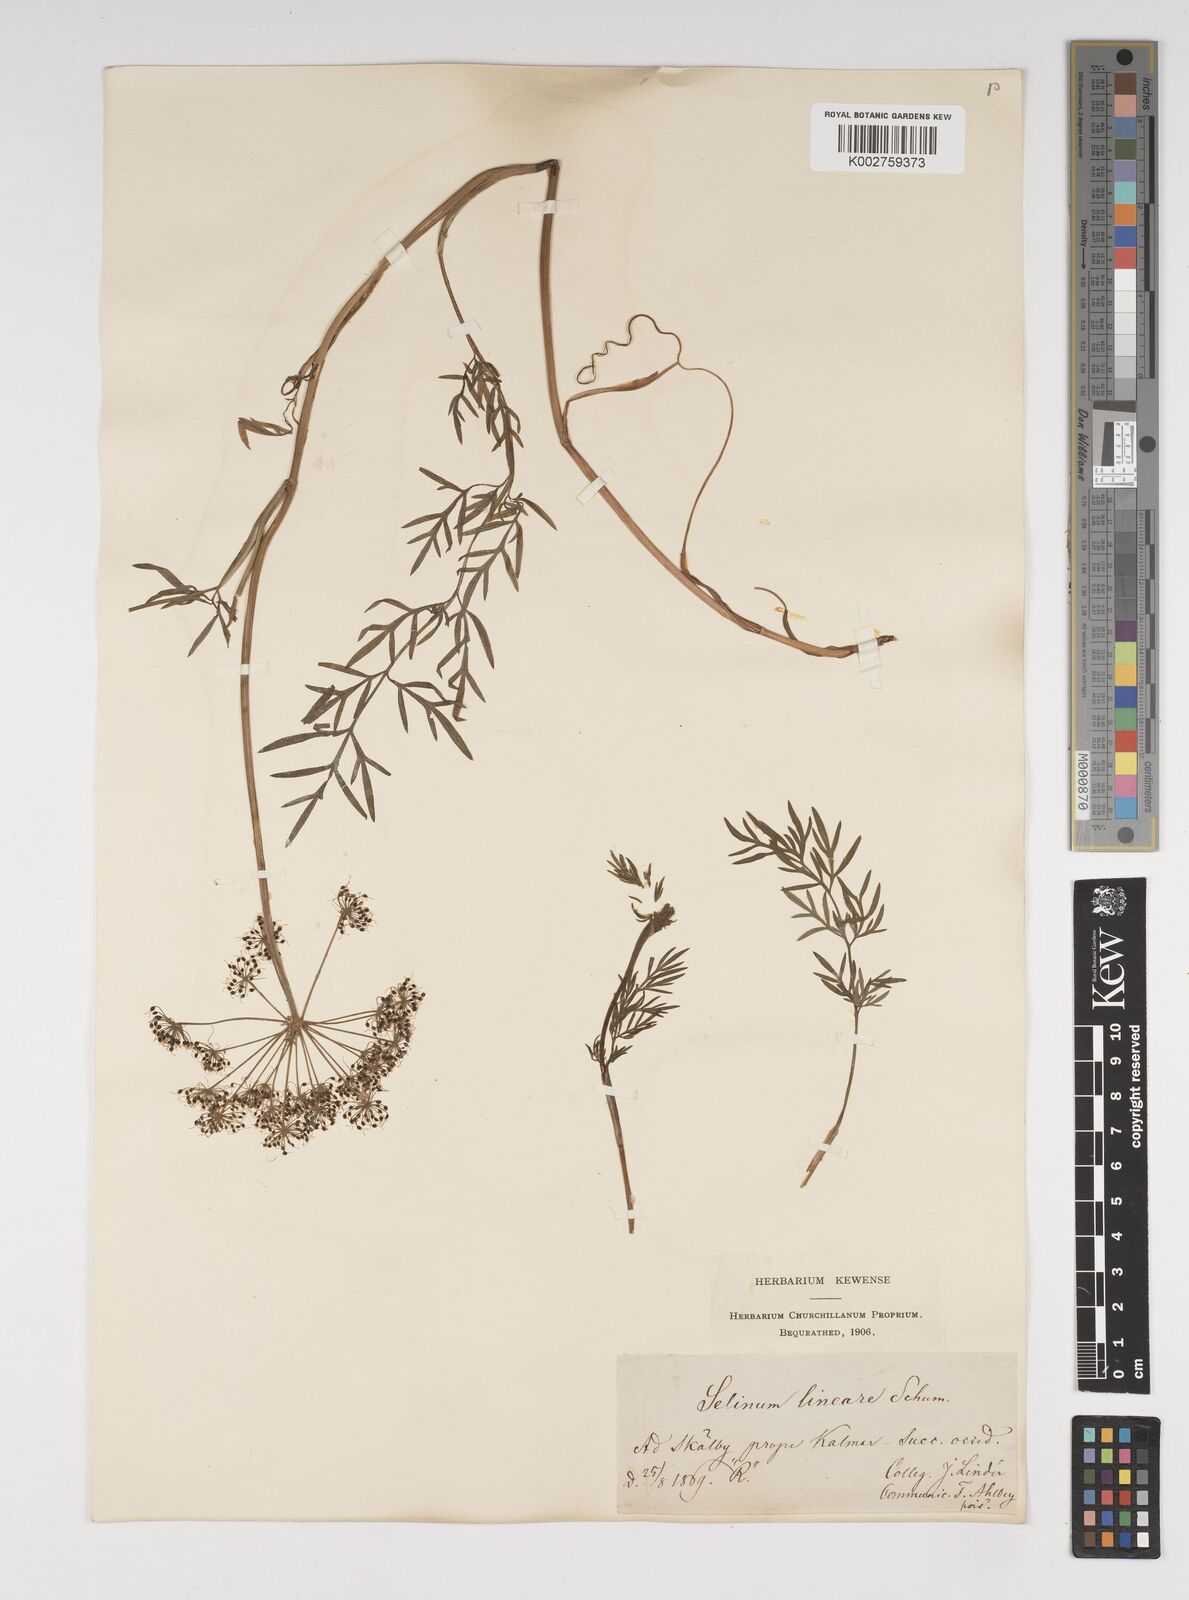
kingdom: Plantae
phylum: Tracheophyta
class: Magnoliopsida
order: Apiales
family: Apiaceae
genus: Kadenia
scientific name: Kadenia dubia
